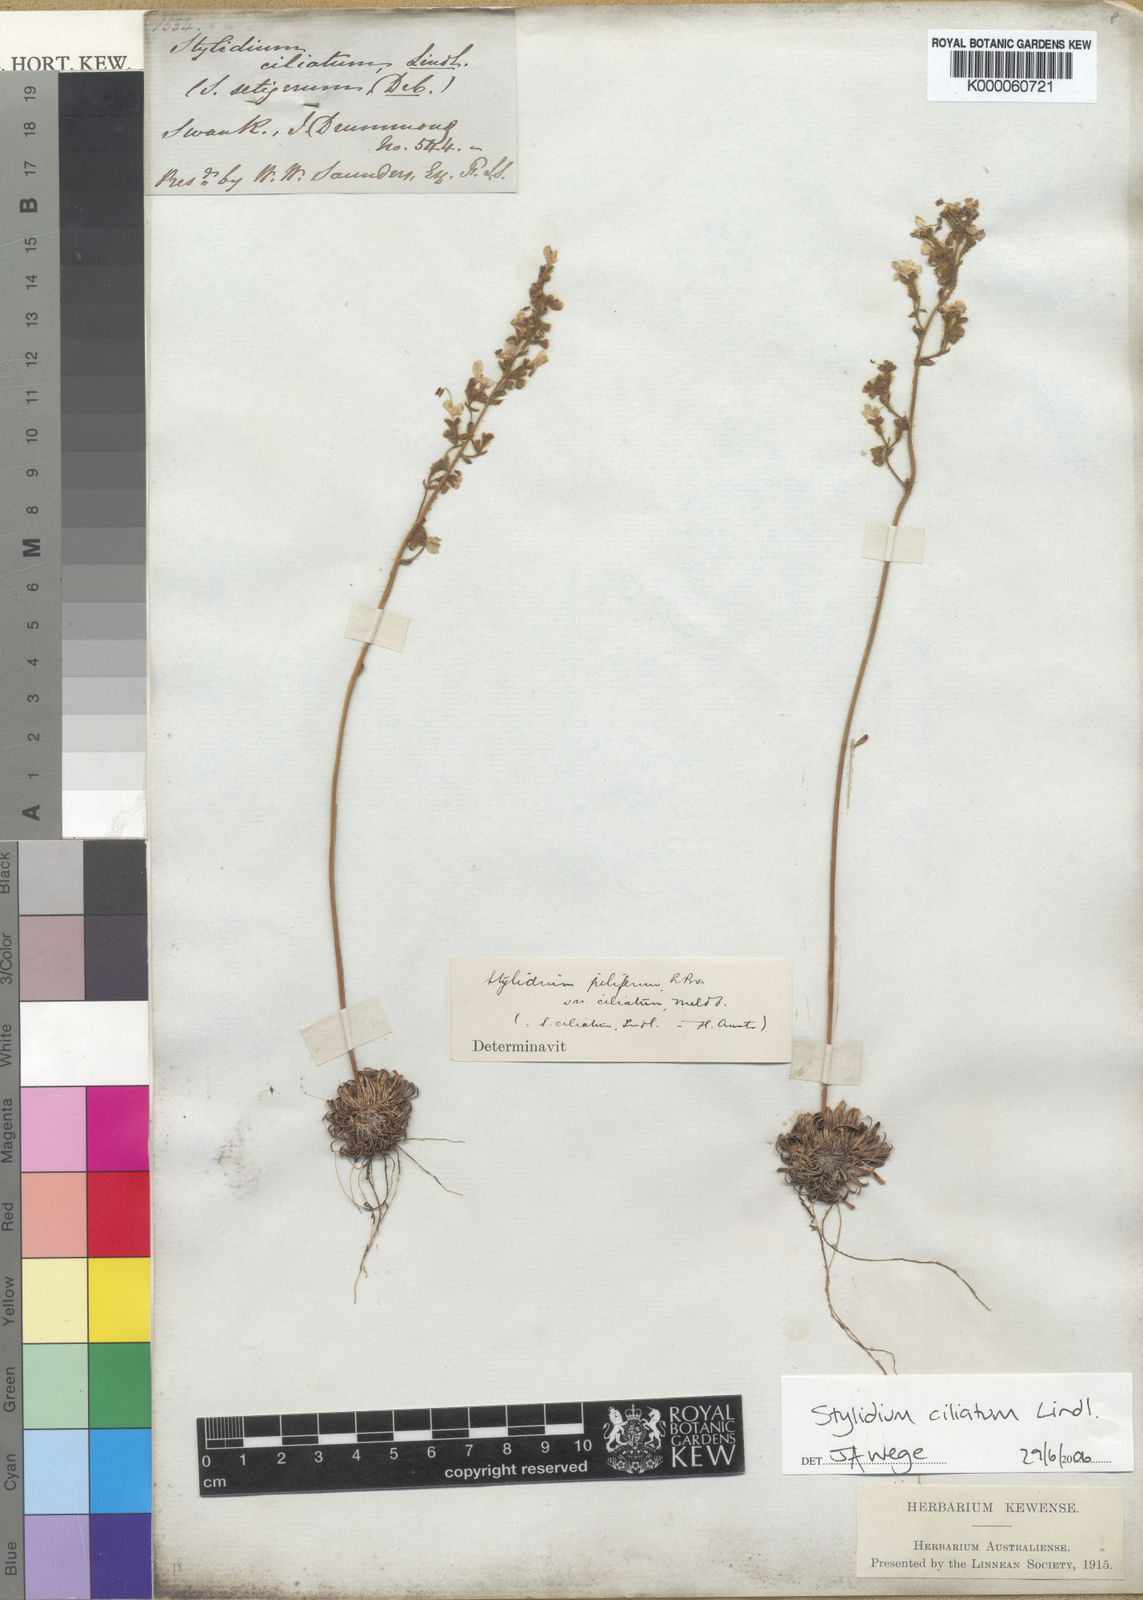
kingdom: Plantae
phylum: Tracheophyta
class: Magnoliopsida
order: Asterales
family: Stylidiaceae
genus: Stylidium
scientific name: Stylidium ciliatum
